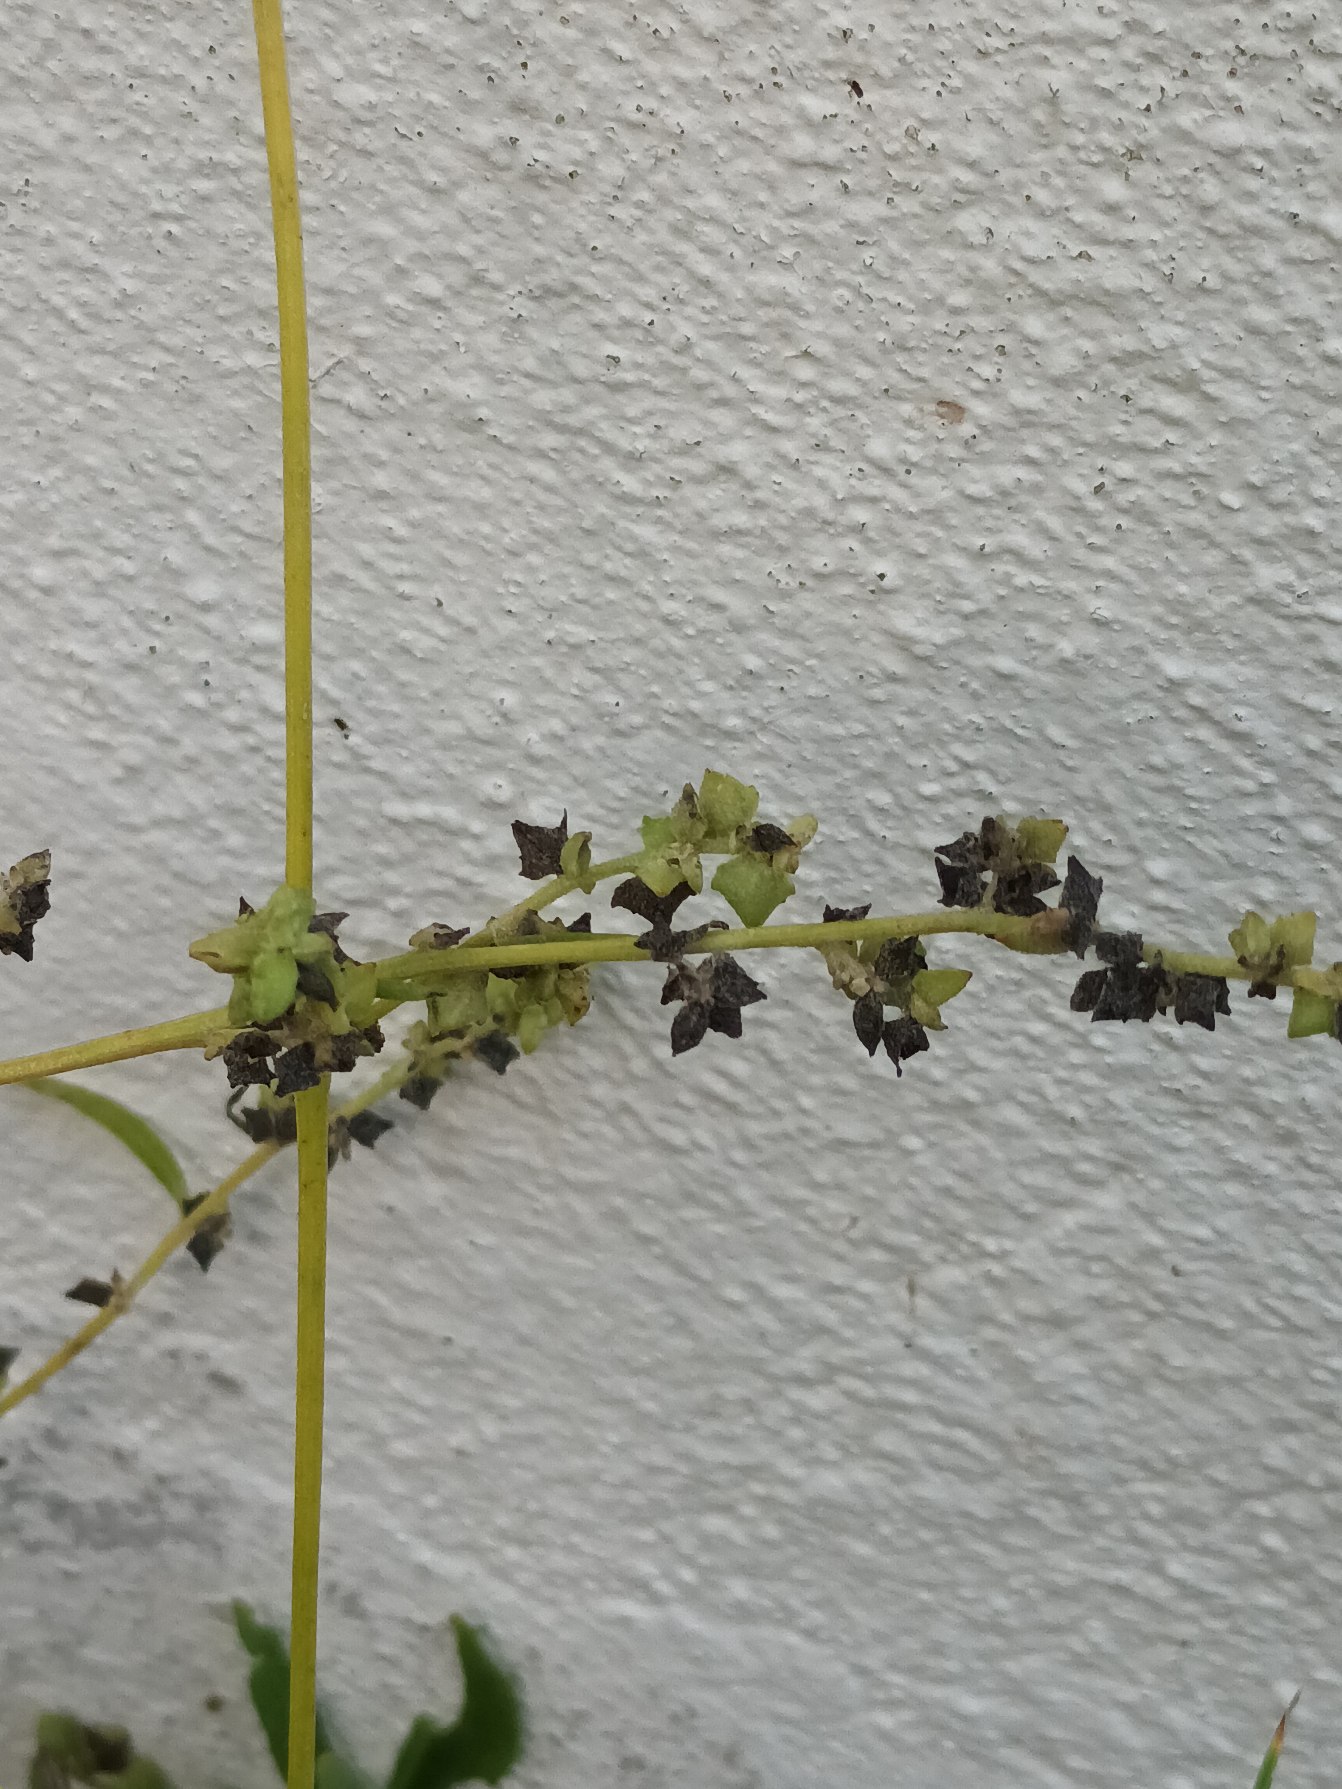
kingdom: Plantae
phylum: Tracheophyta
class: Magnoliopsida
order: Caryophyllales
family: Amaranthaceae
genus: Atriplex
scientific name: Atriplex patula
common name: Svine-mælde
